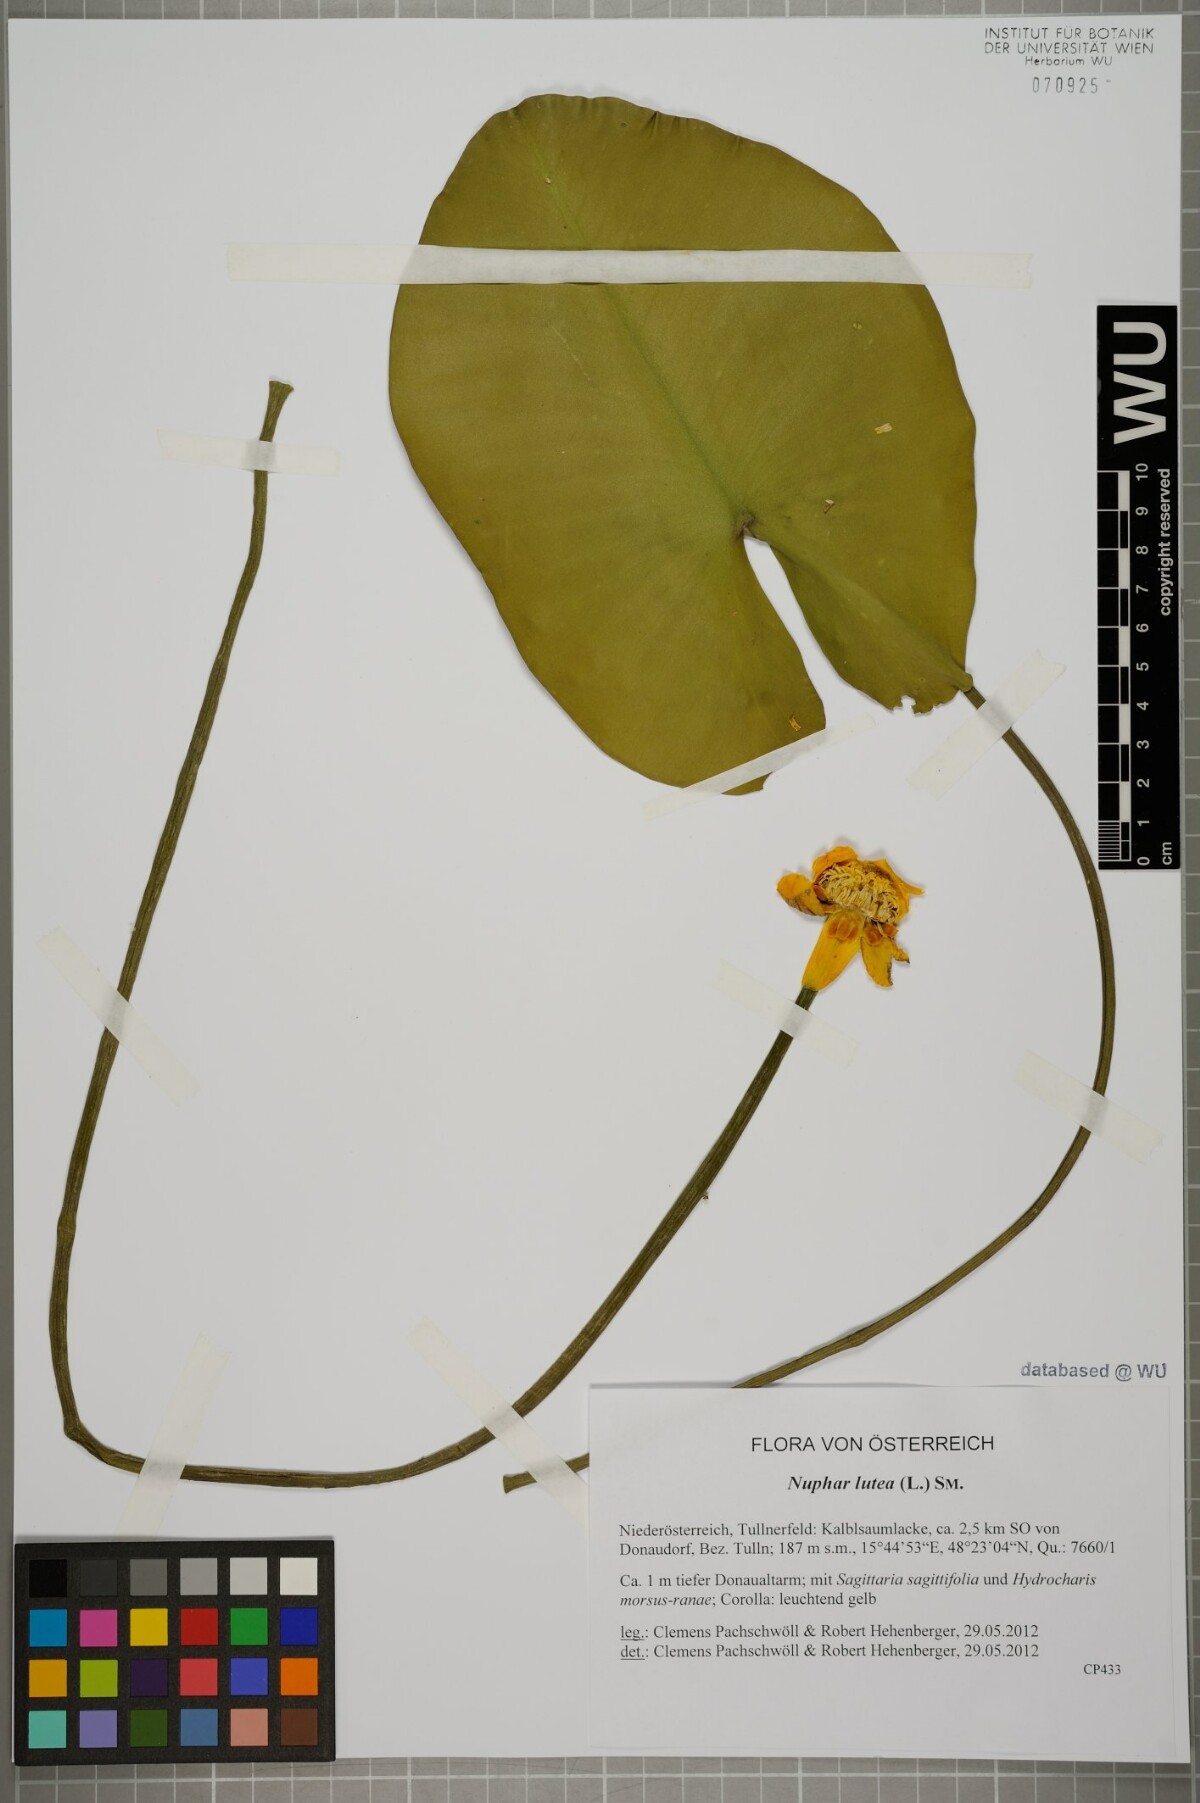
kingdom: Plantae
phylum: Tracheophyta
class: Magnoliopsida
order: Nymphaeales
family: Nymphaeaceae
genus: Nuphar
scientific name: Nuphar lutea
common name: Yellow water-lily
